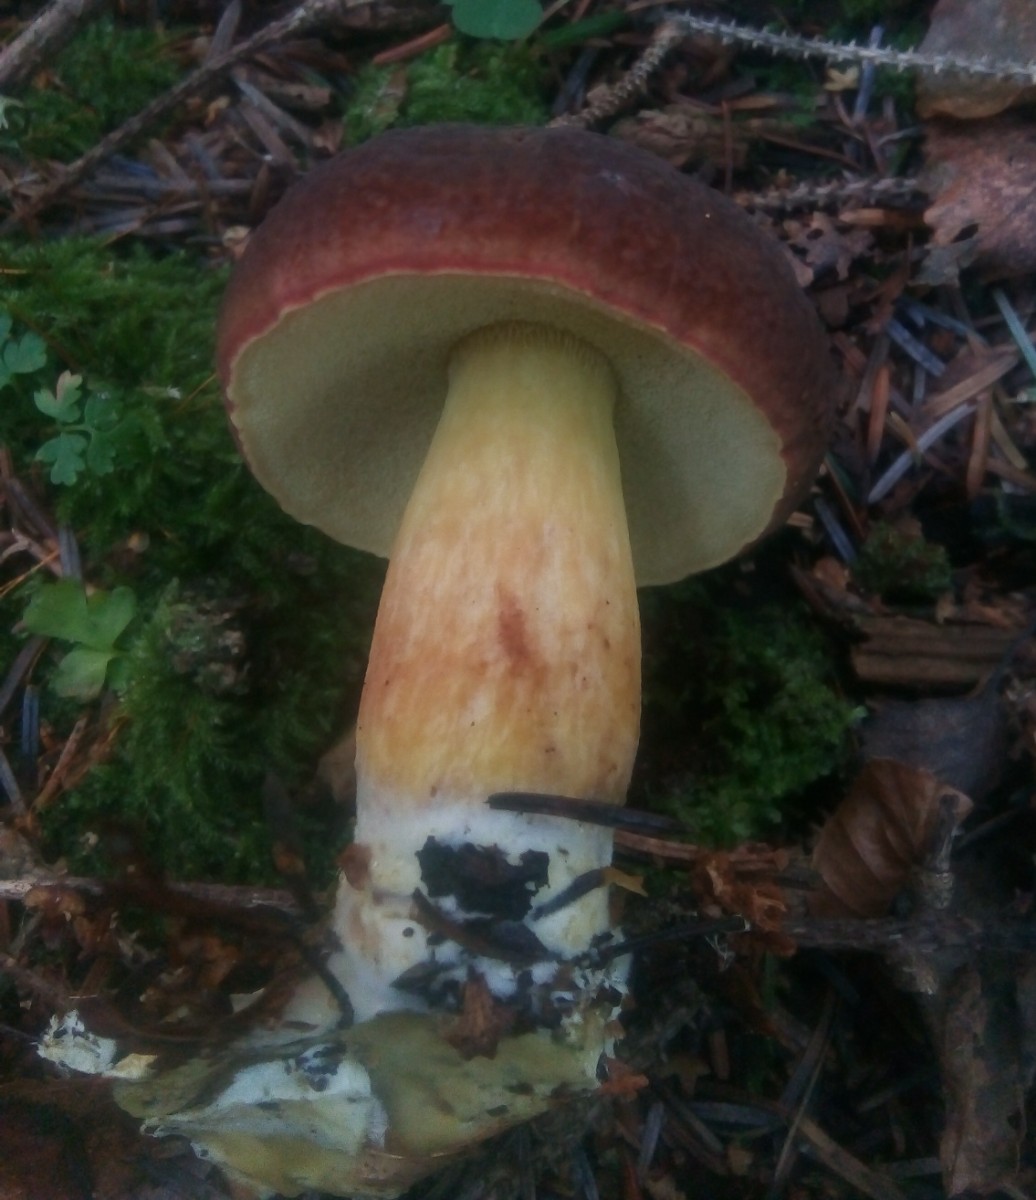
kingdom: Fungi
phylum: Basidiomycota
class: Agaricomycetes
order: Boletales
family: Boletaceae
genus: Xerocomellus
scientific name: Xerocomellus pruinatus
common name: dugget rørhat
